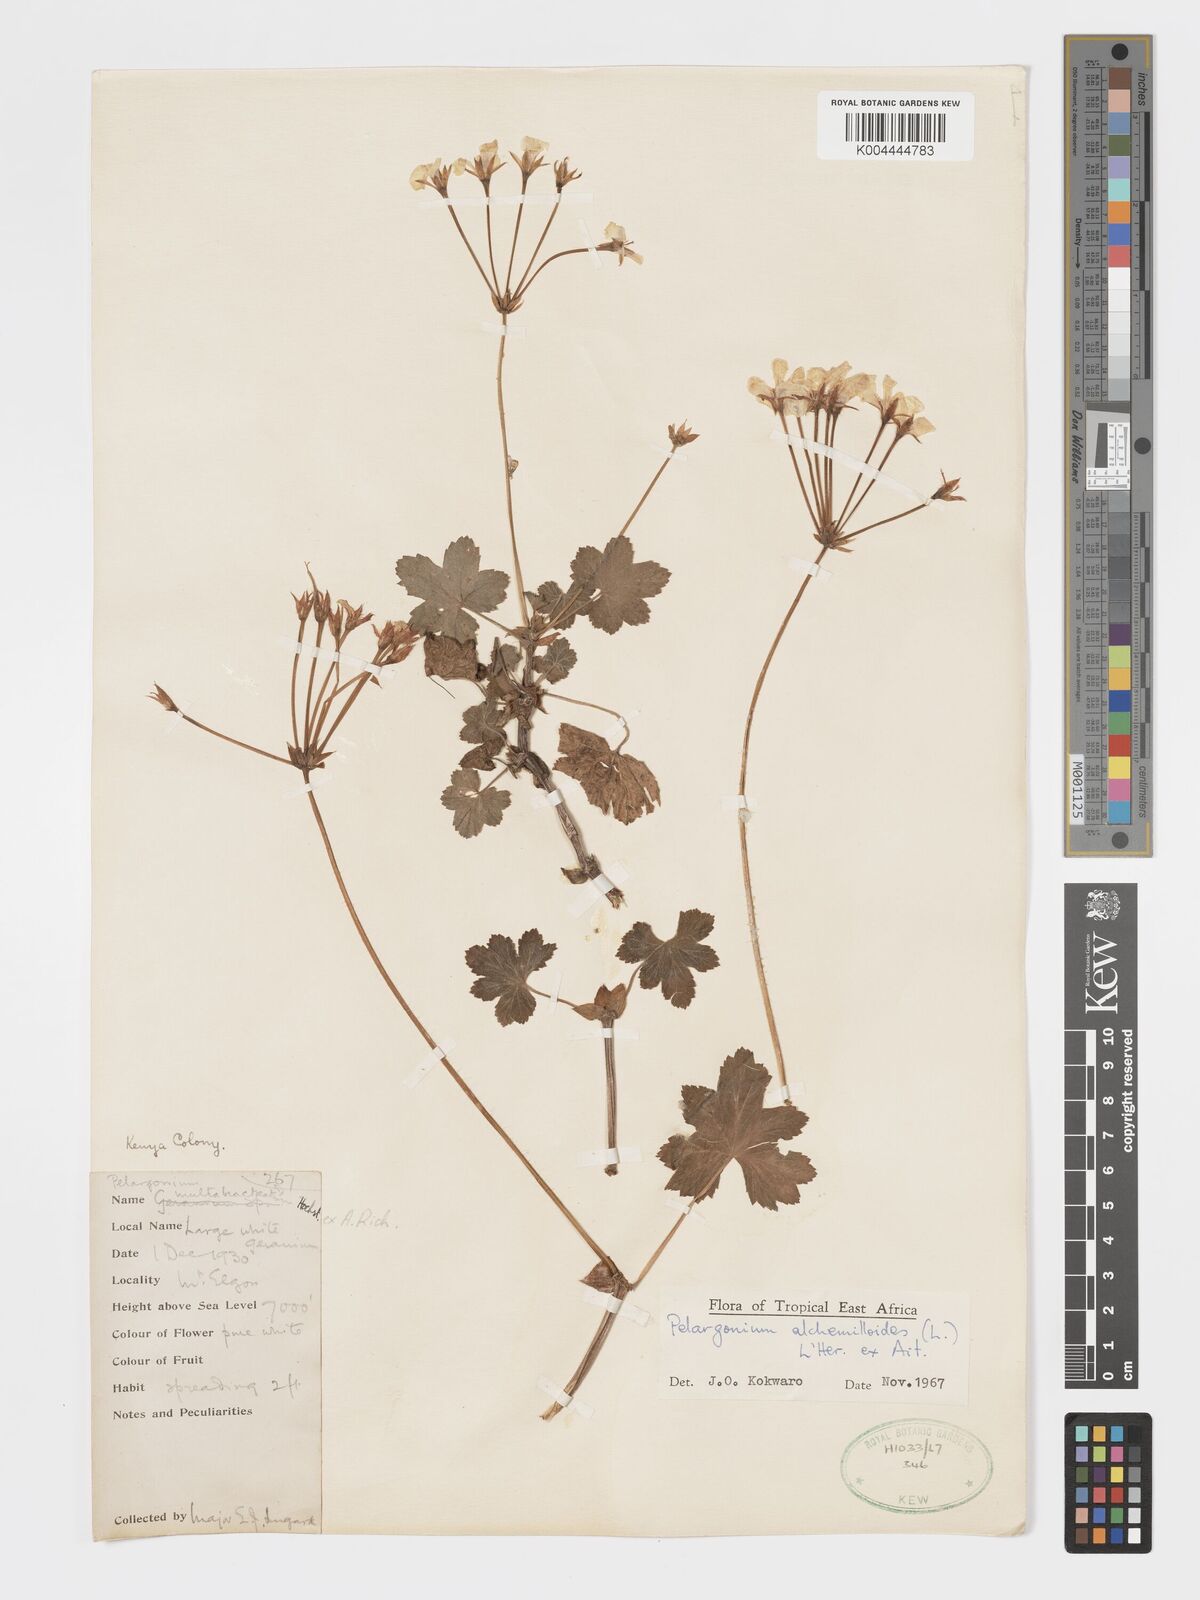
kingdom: Plantae
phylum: Tracheophyta
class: Magnoliopsida
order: Geraniales
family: Geraniaceae
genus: Pelargonium
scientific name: Pelargonium alchemilloides
